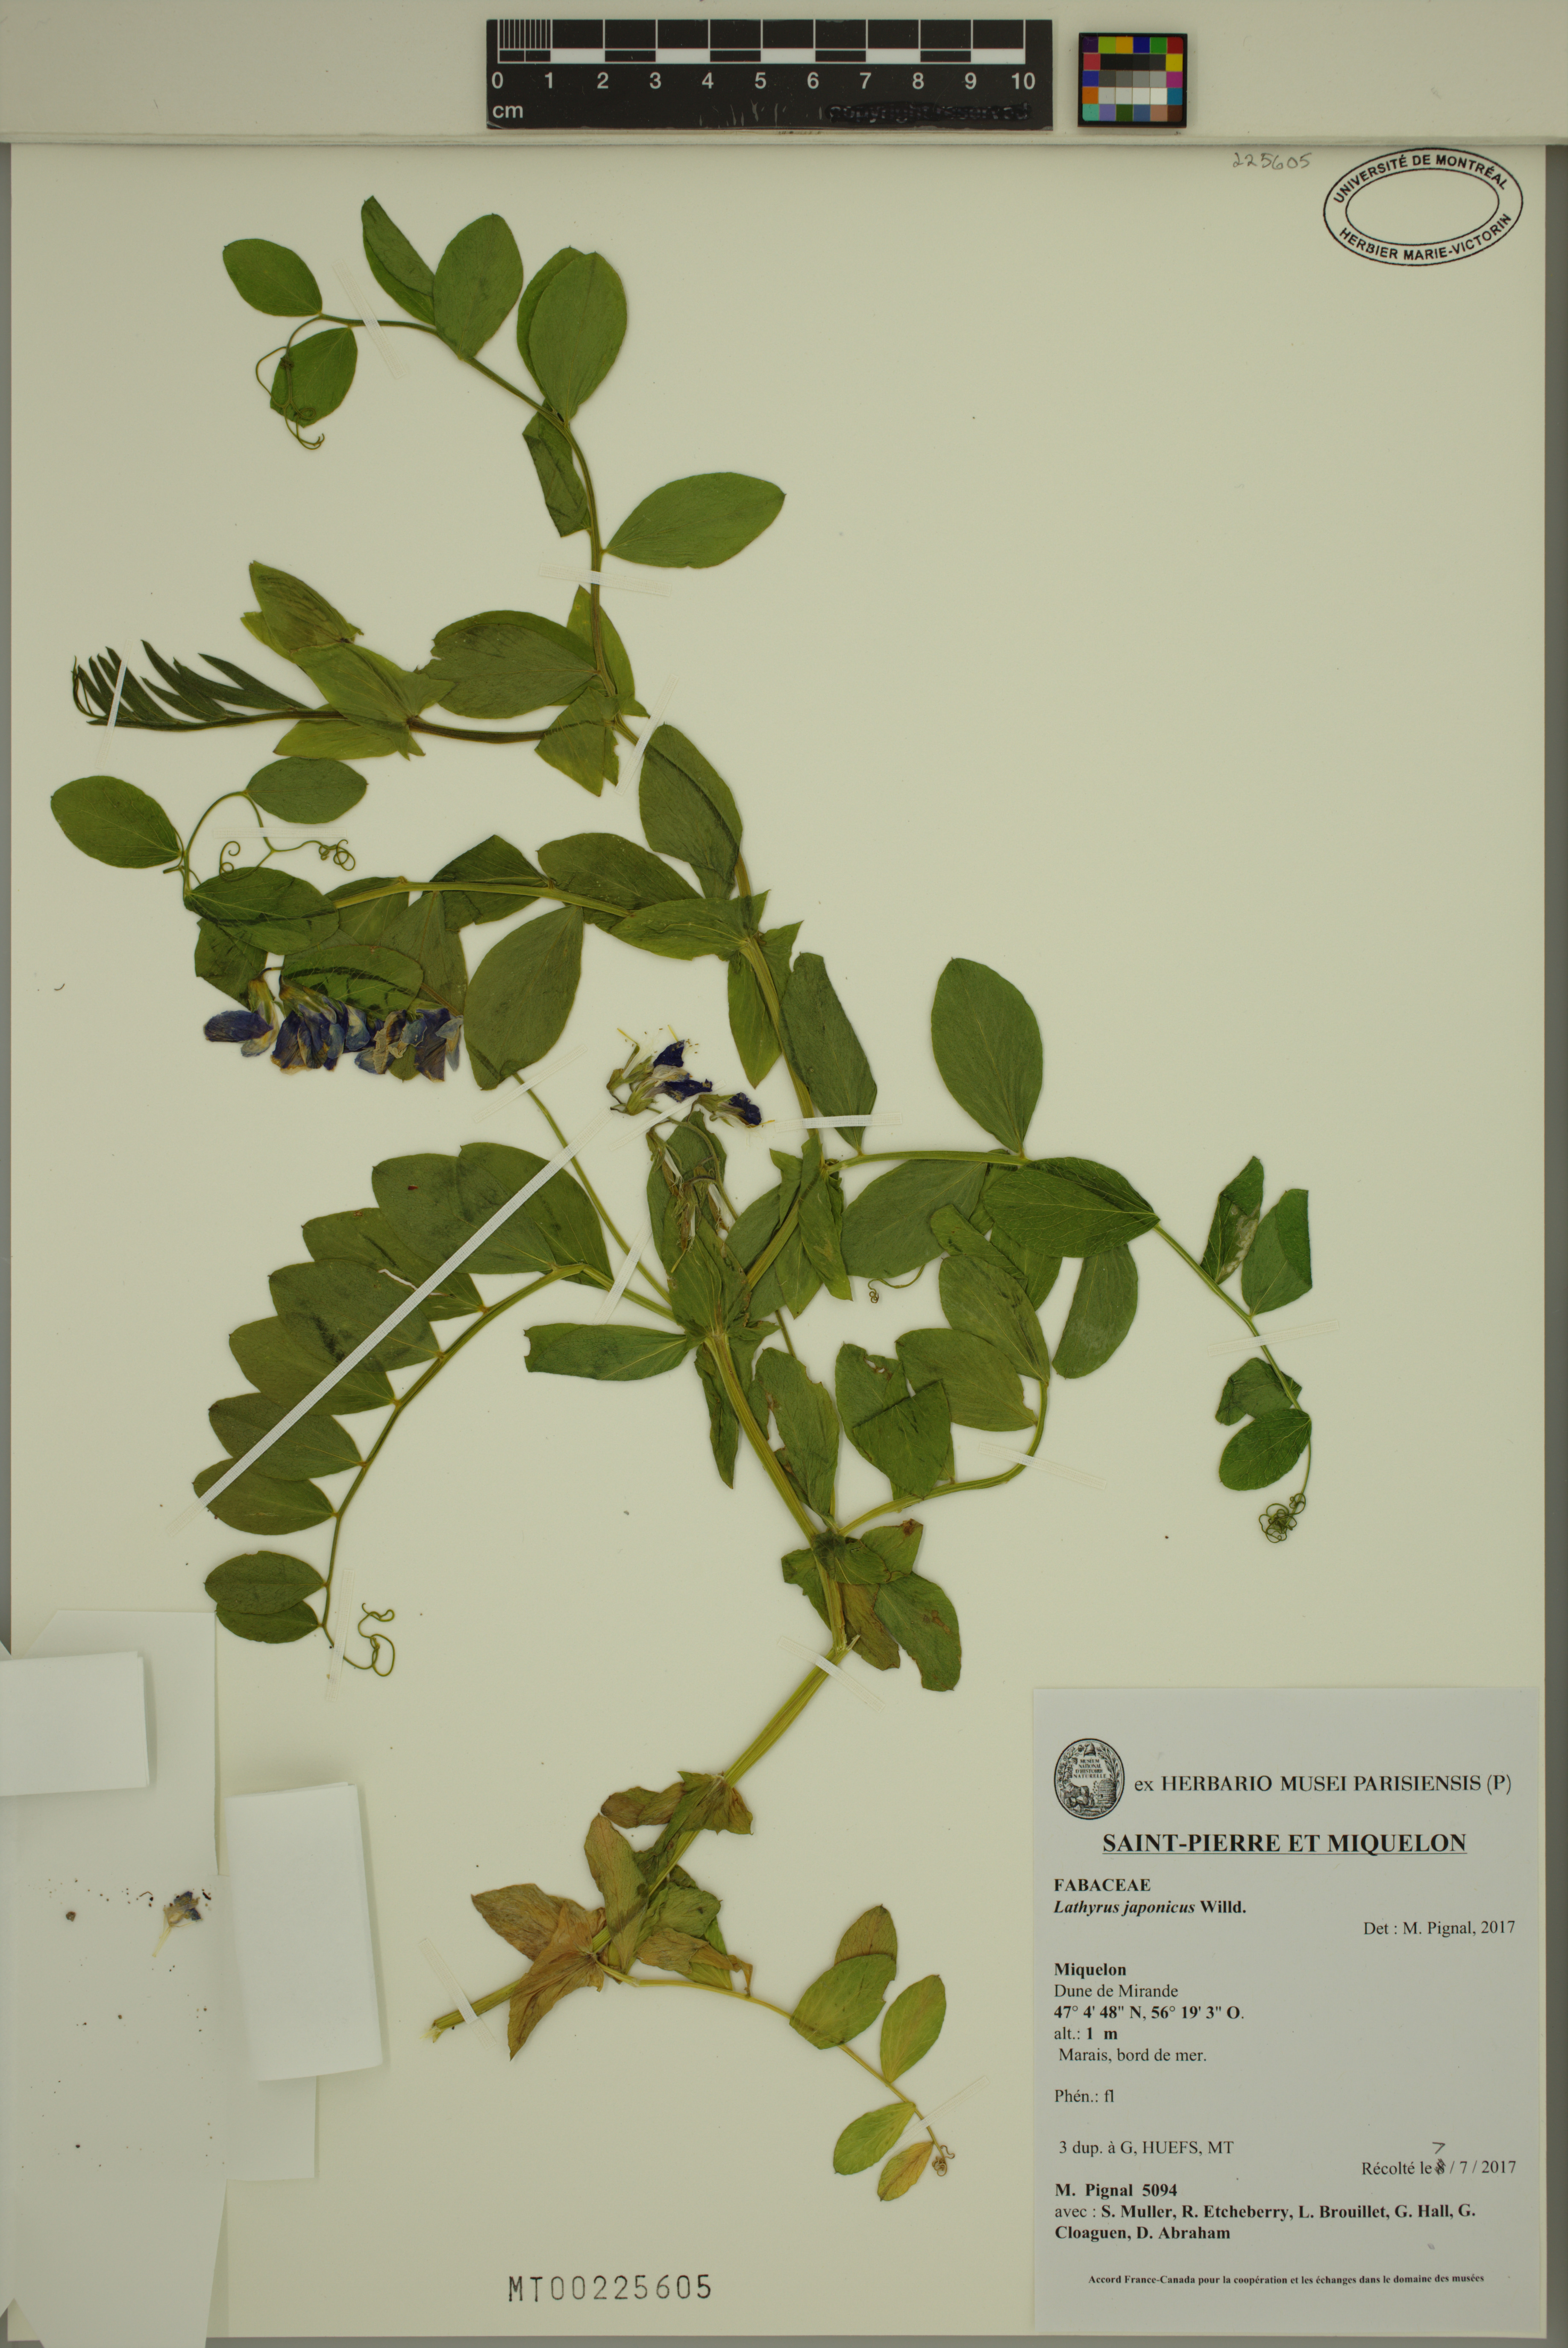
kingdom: Plantae
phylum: Tracheophyta
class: Magnoliopsida
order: Fabales
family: Fabaceae
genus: Lathyrus
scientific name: Lathyrus japonicus
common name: Sea pea
